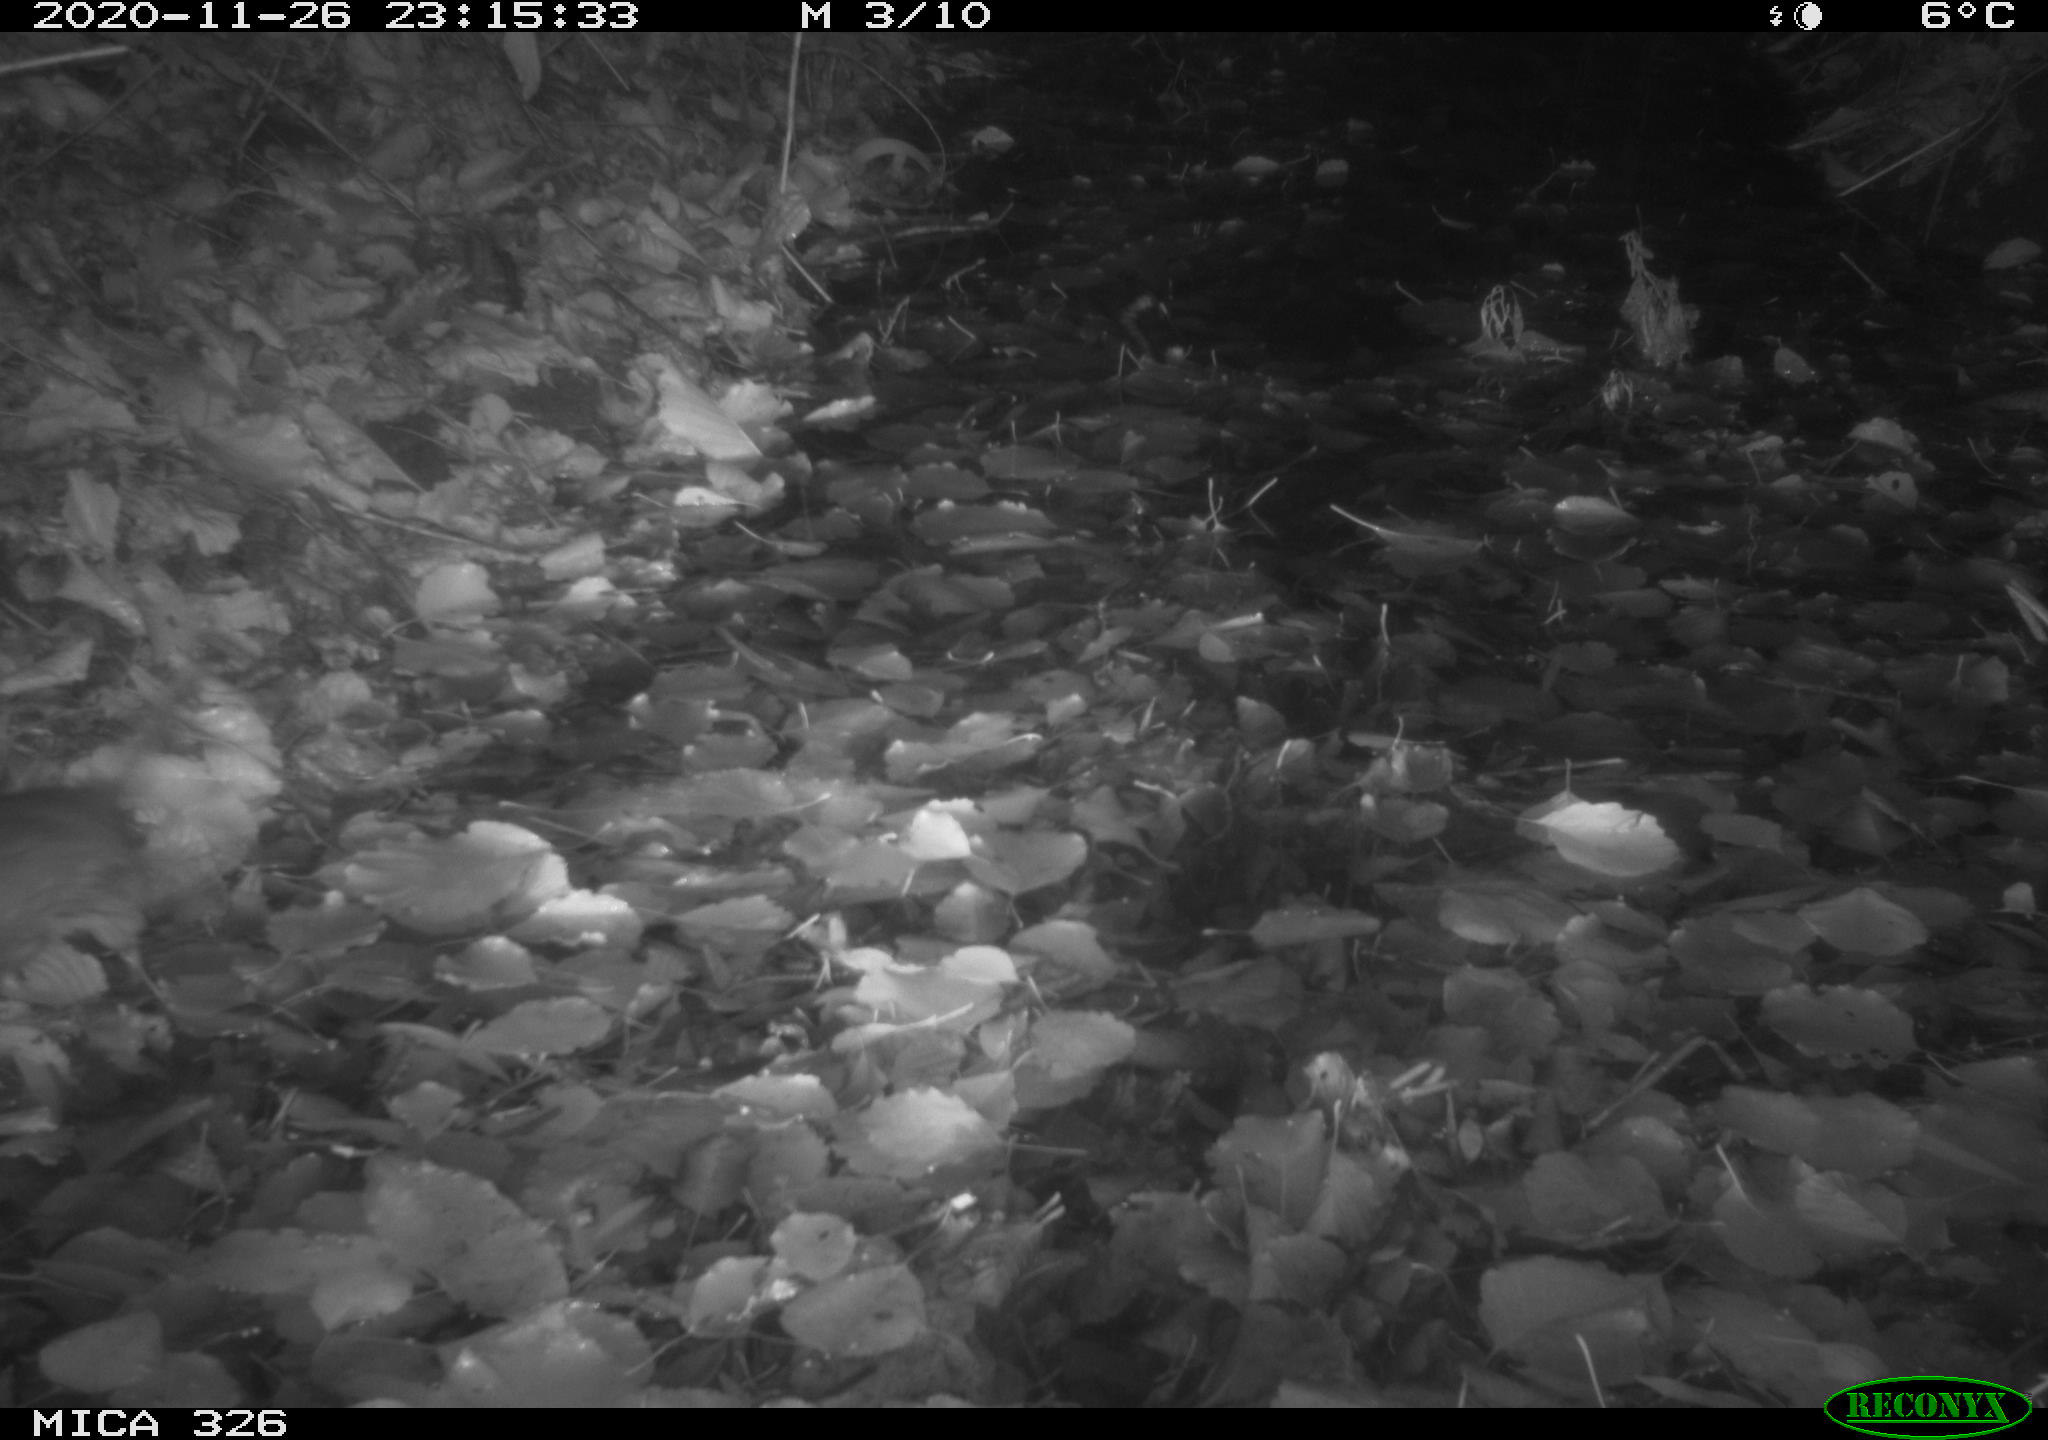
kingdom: Animalia
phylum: Chordata
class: Mammalia
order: Rodentia
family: Muridae
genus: Rattus
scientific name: Rattus norvegicus
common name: Brown rat
